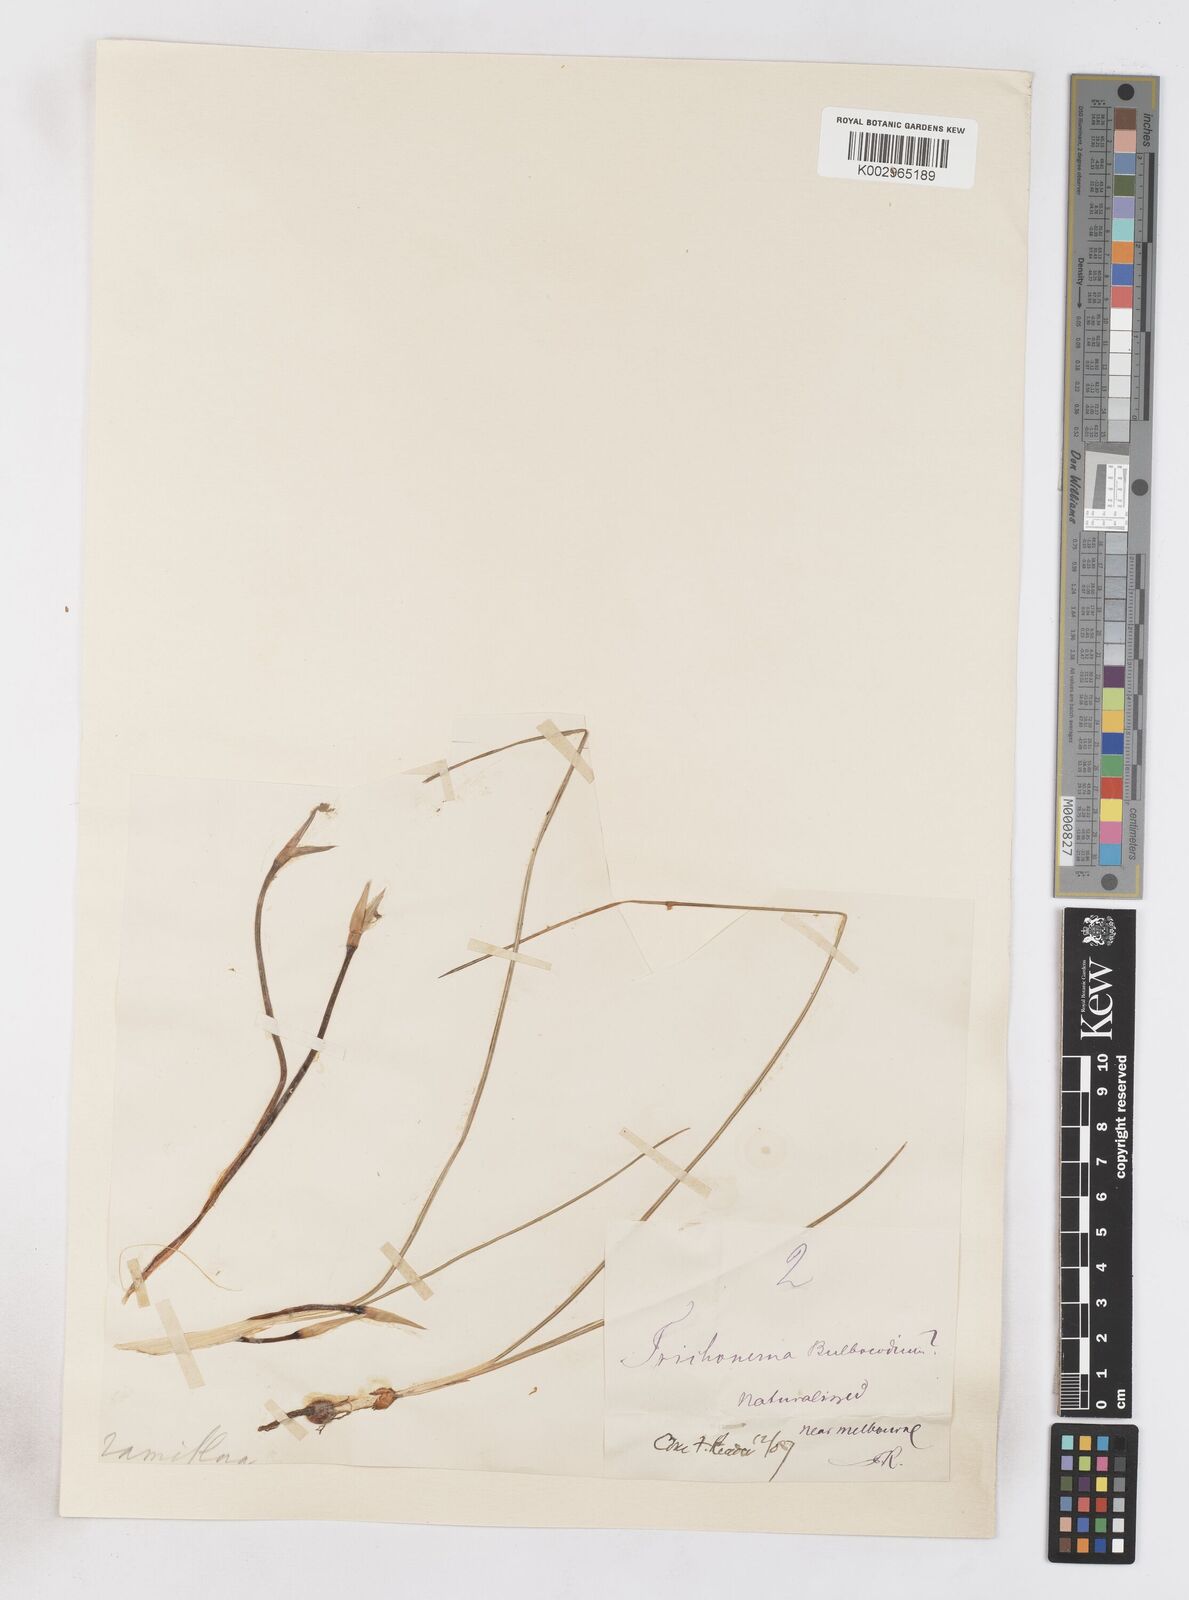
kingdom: Plantae
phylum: Tracheophyta
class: Liliopsida
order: Asparagales
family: Iridaceae
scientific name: Iridaceae
